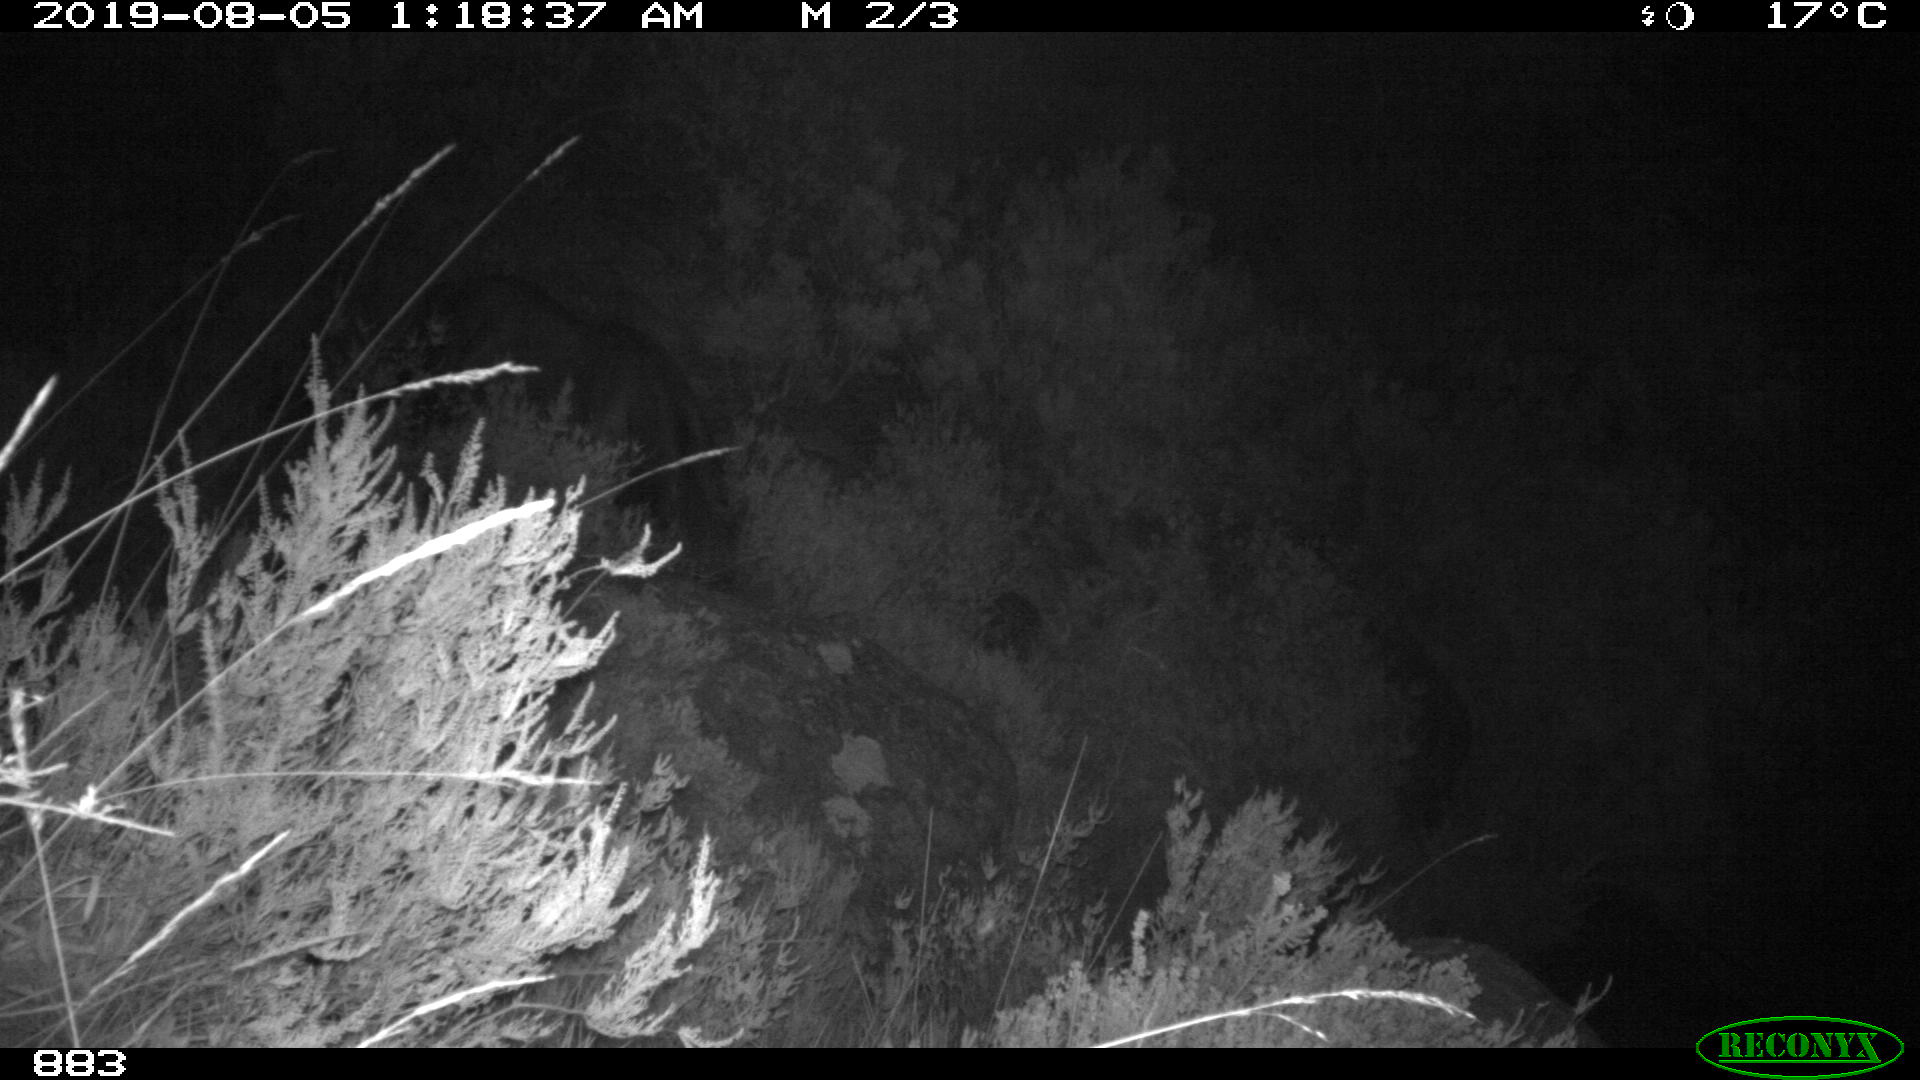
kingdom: Animalia
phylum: Chordata
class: Mammalia
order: Perissodactyla
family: Equidae
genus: Equus
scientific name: Equus caballus
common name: Horse
